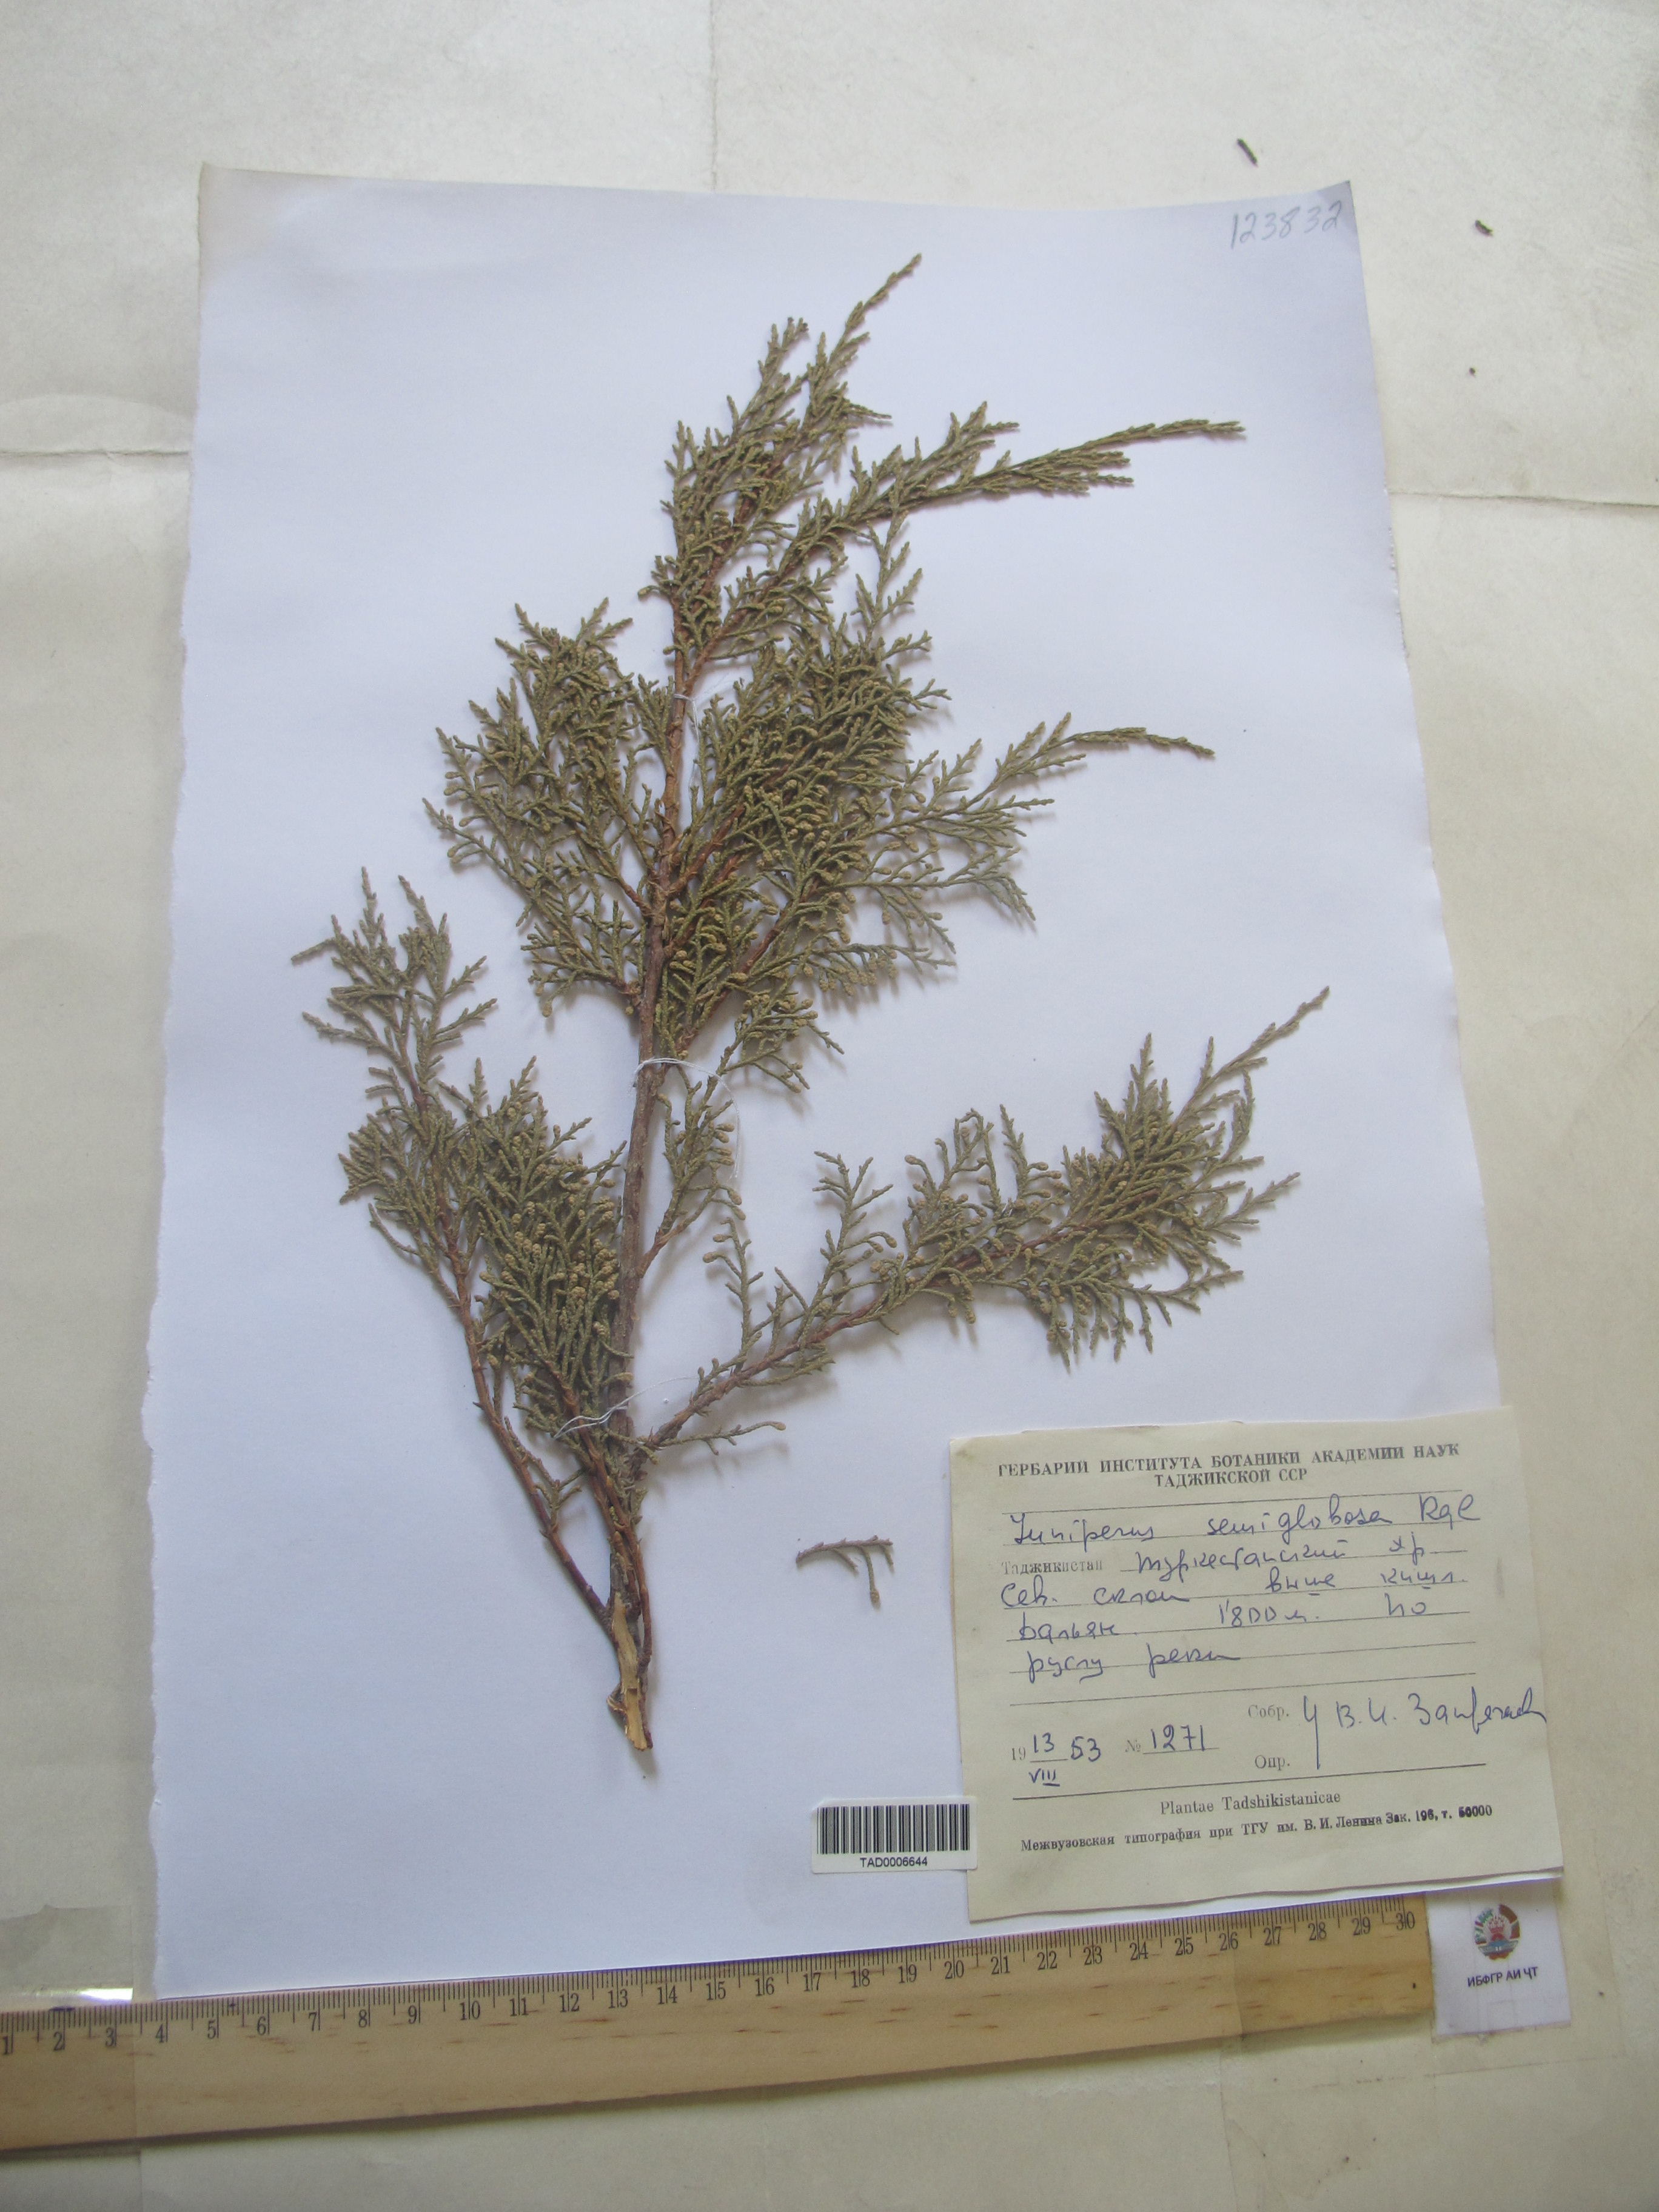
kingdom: Plantae
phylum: Tracheophyta
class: Pinopsida
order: Pinales
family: Cupressaceae
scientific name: Cupressaceae
